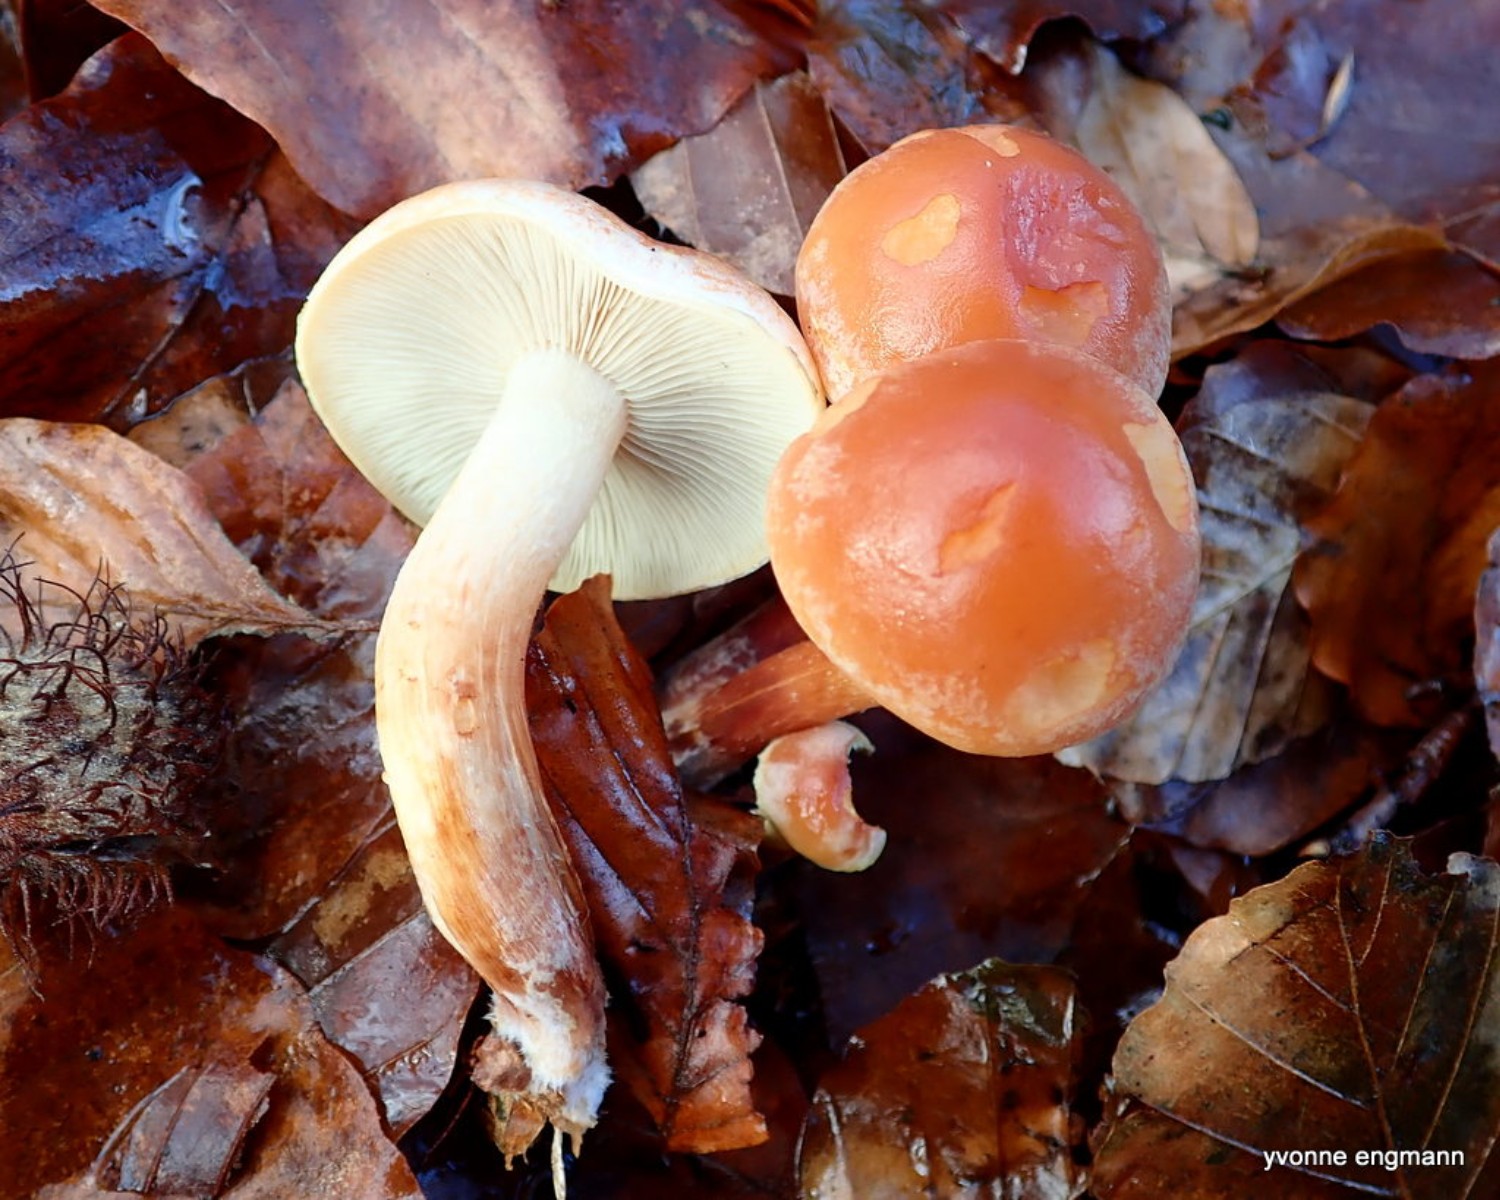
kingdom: Fungi
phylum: Basidiomycota
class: Agaricomycetes
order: Agaricales
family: Strophariaceae
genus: Hypholoma
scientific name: Hypholoma lateritium
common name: teglrød svovlhat
